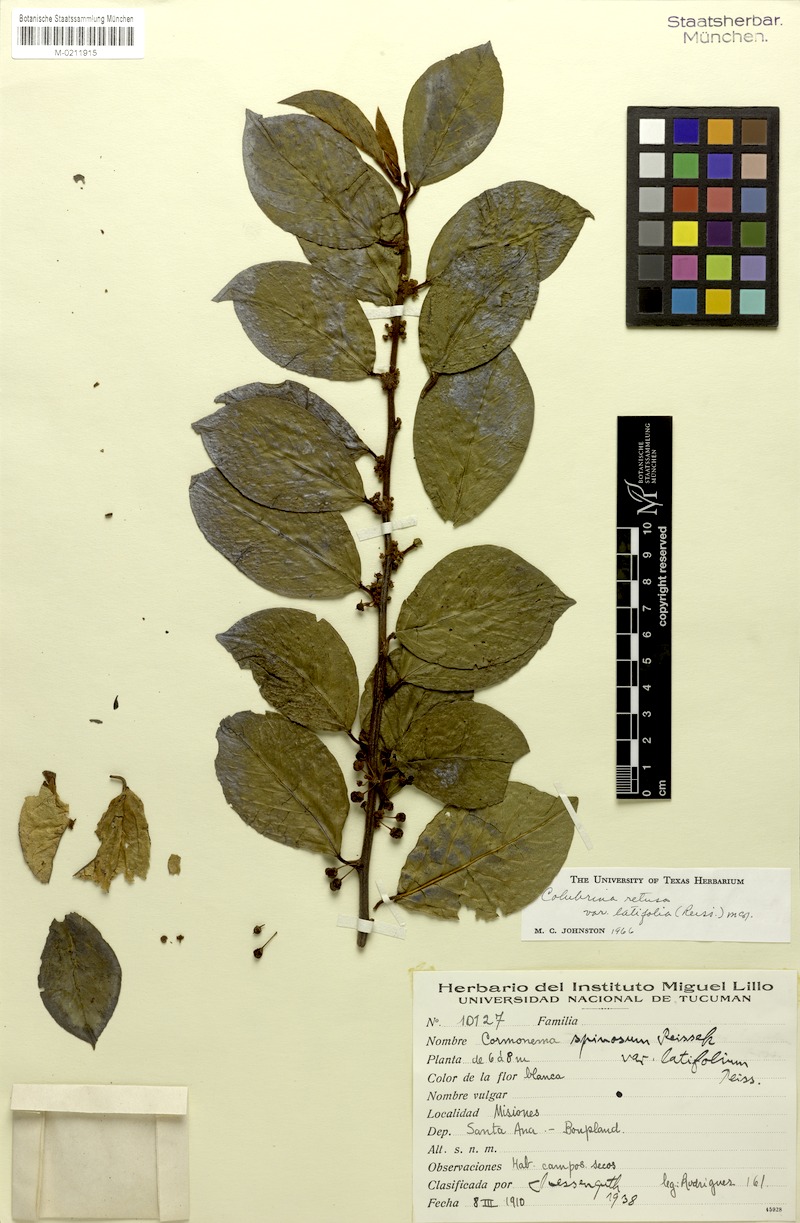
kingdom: Plantae
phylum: Tracheophyta
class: Magnoliopsida
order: Rosales
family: Rhamnaceae
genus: Colubrina
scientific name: Colubrina retusa
